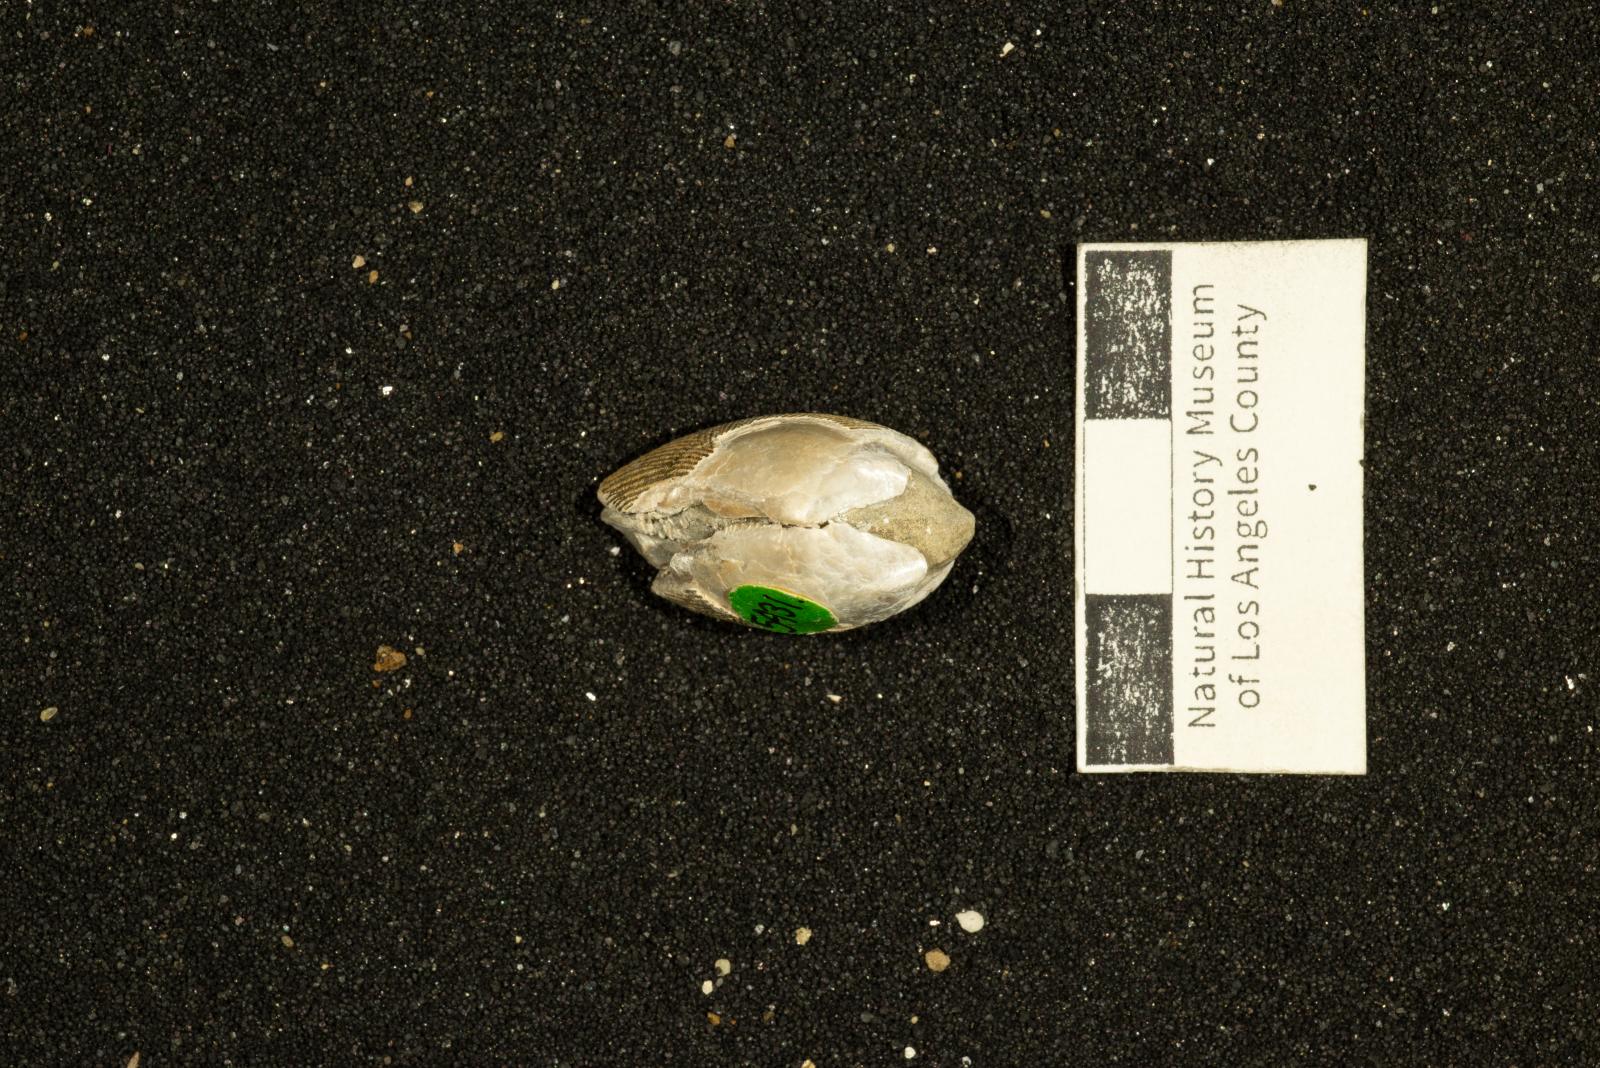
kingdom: Animalia
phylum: Mollusca
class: Bivalvia
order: Nuculida
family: Nuculidae
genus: Acila
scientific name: Acila rosaria
